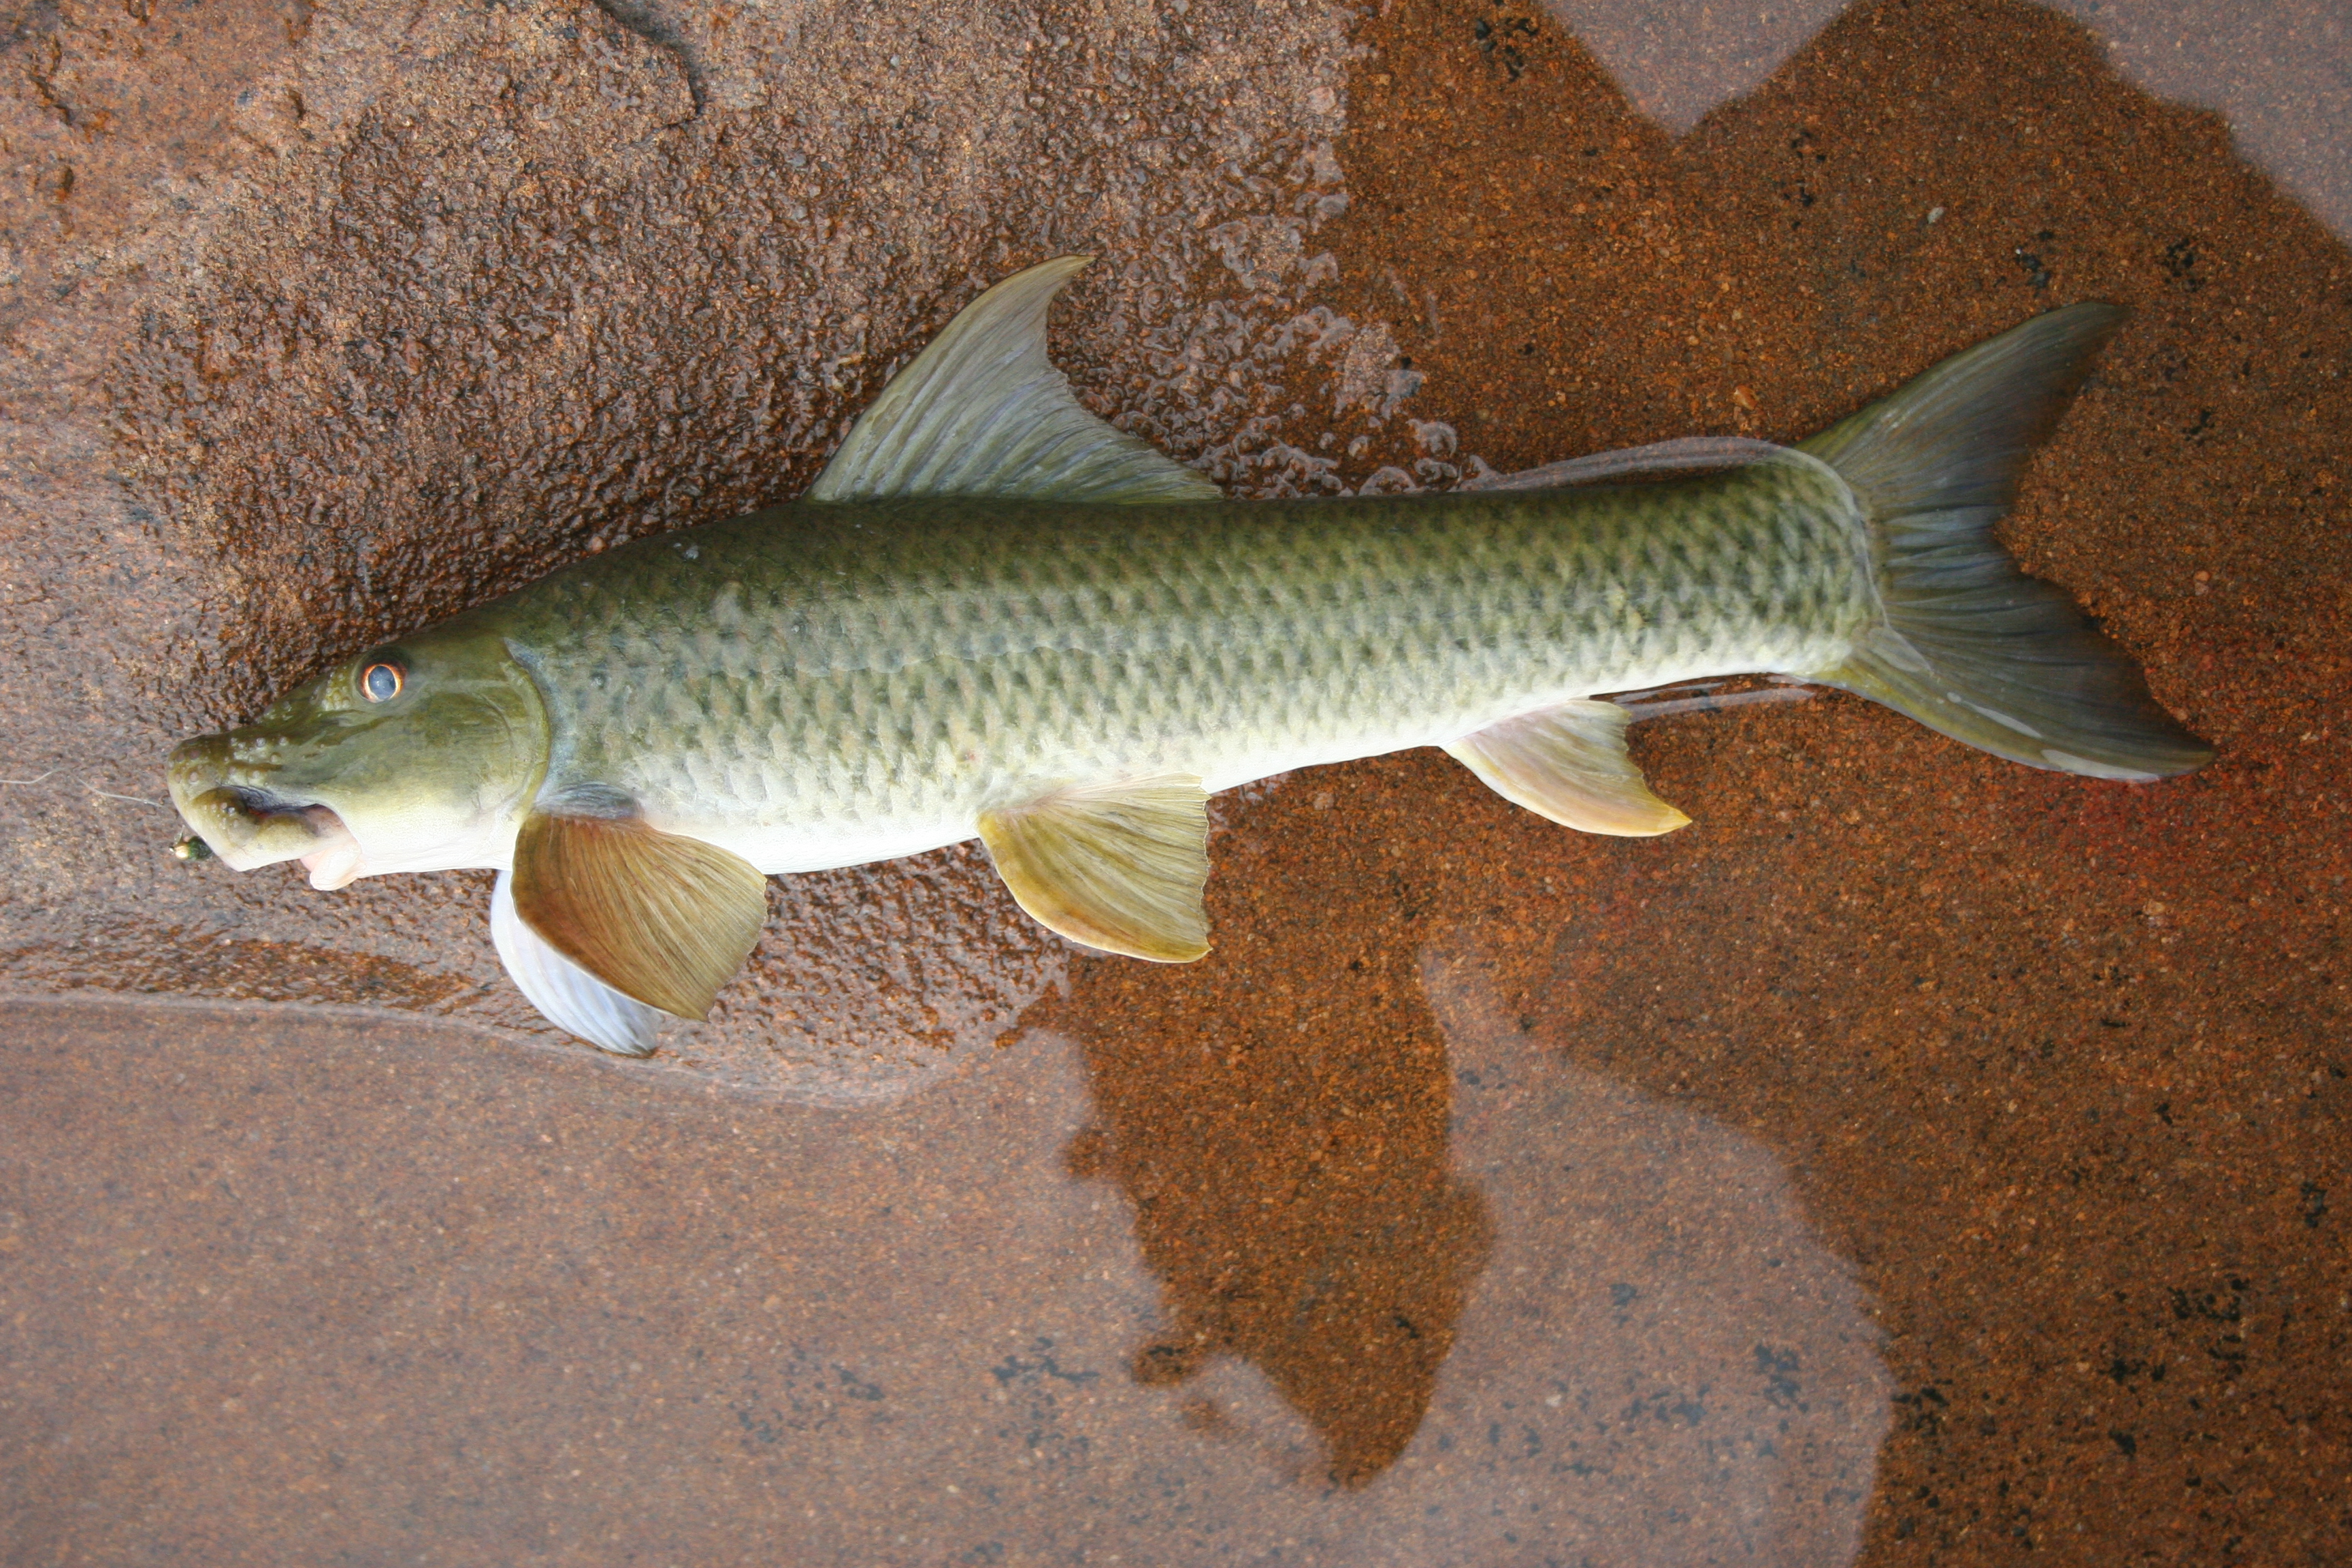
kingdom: Animalia
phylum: Chordata
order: Cypriniformes
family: Cyprinidae
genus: Labeo
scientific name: Labeo
